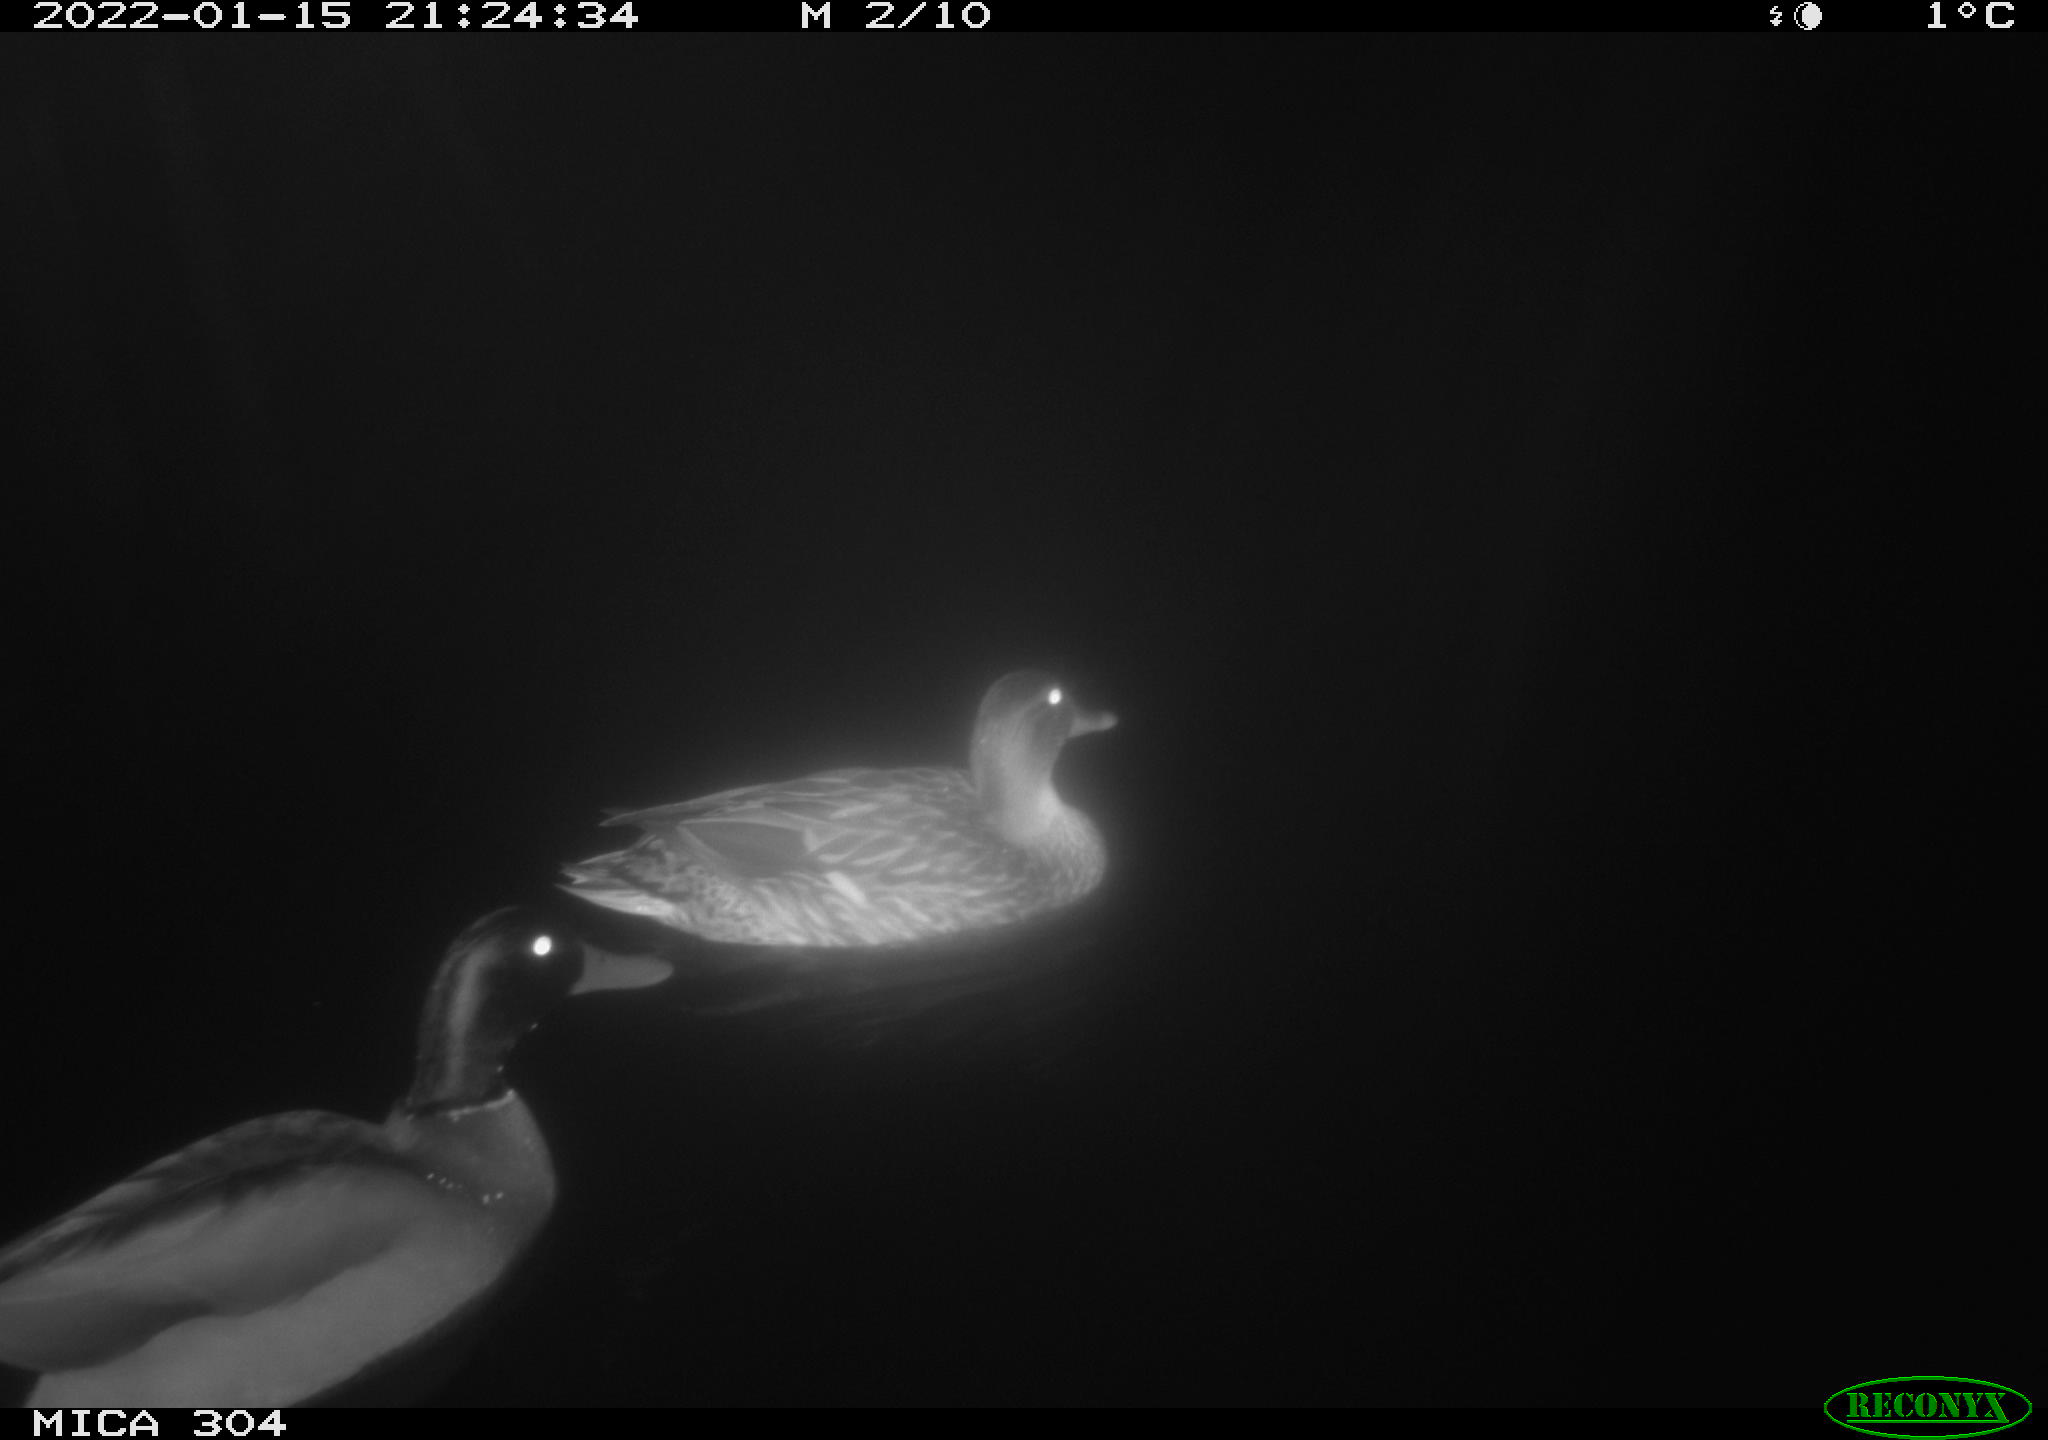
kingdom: Animalia
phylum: Chordata
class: Aves
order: Anseriformes
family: Anatidae
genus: Anas
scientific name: Anas
